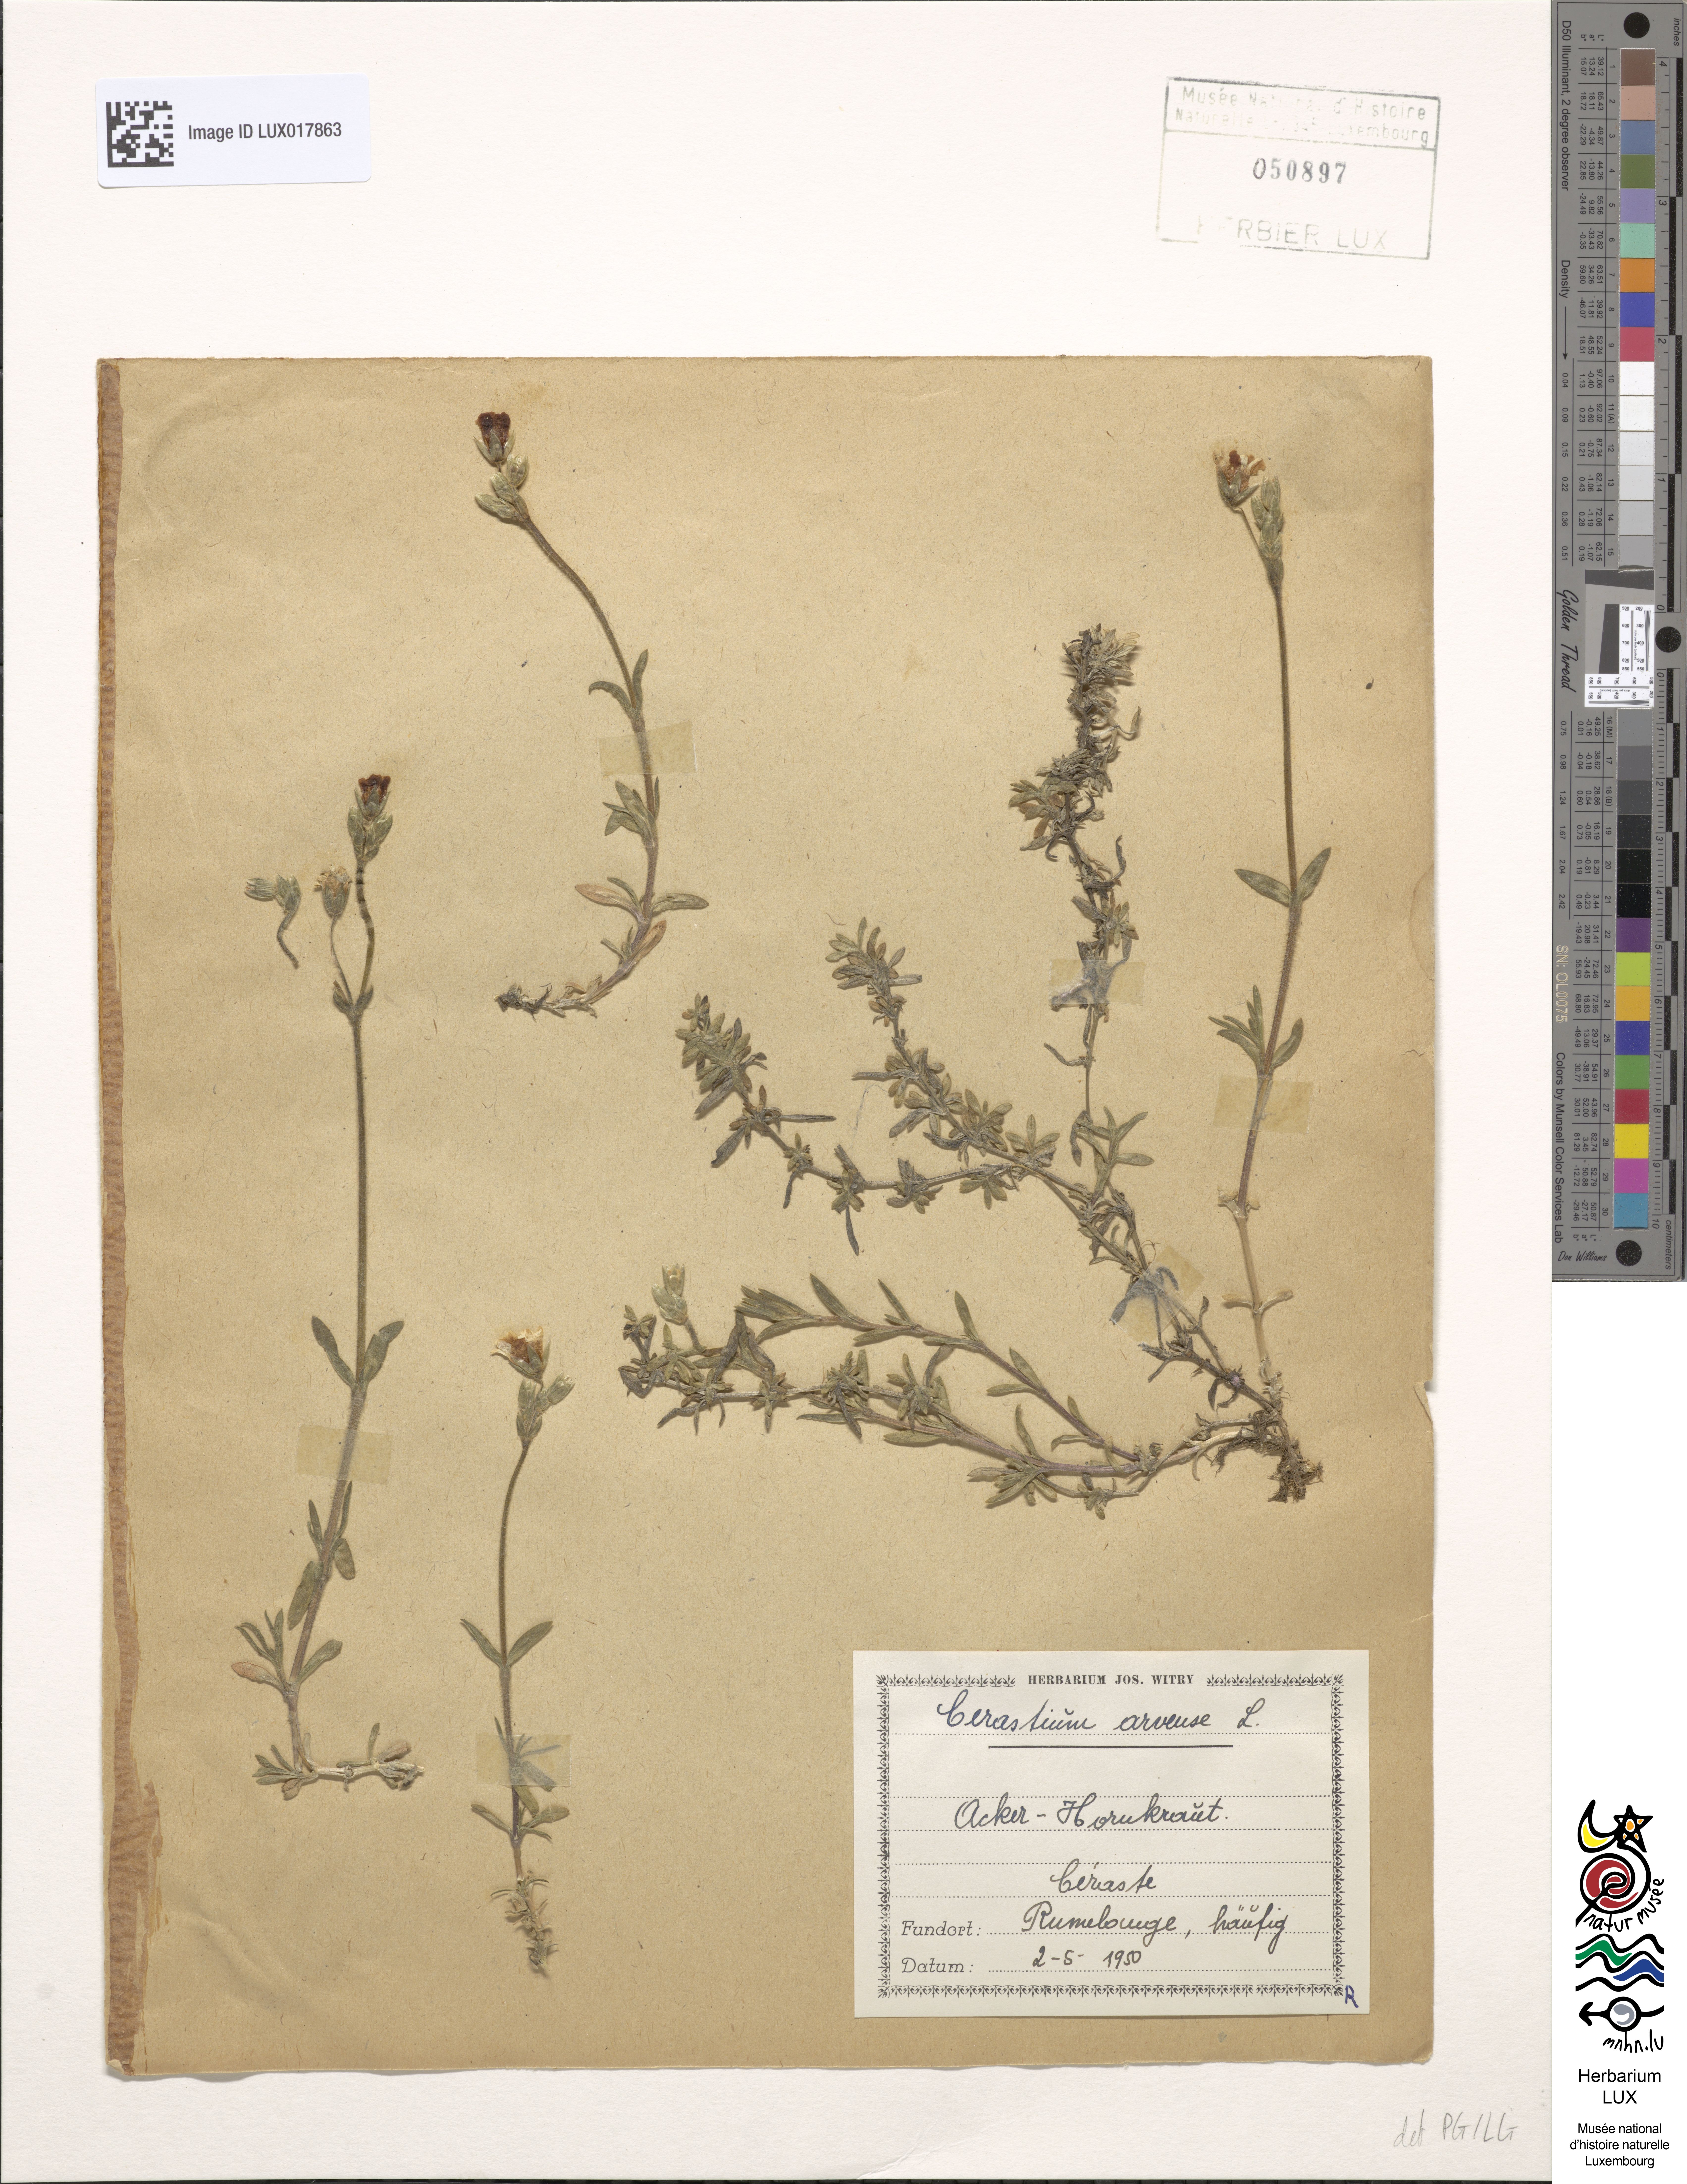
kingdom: Plantae
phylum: Tracheophyta
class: Magnoliopsida
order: Caryophyllales
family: Caryophyllaceae
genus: Cerastium
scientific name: Cerastium arvense
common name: Field mouse-ear
